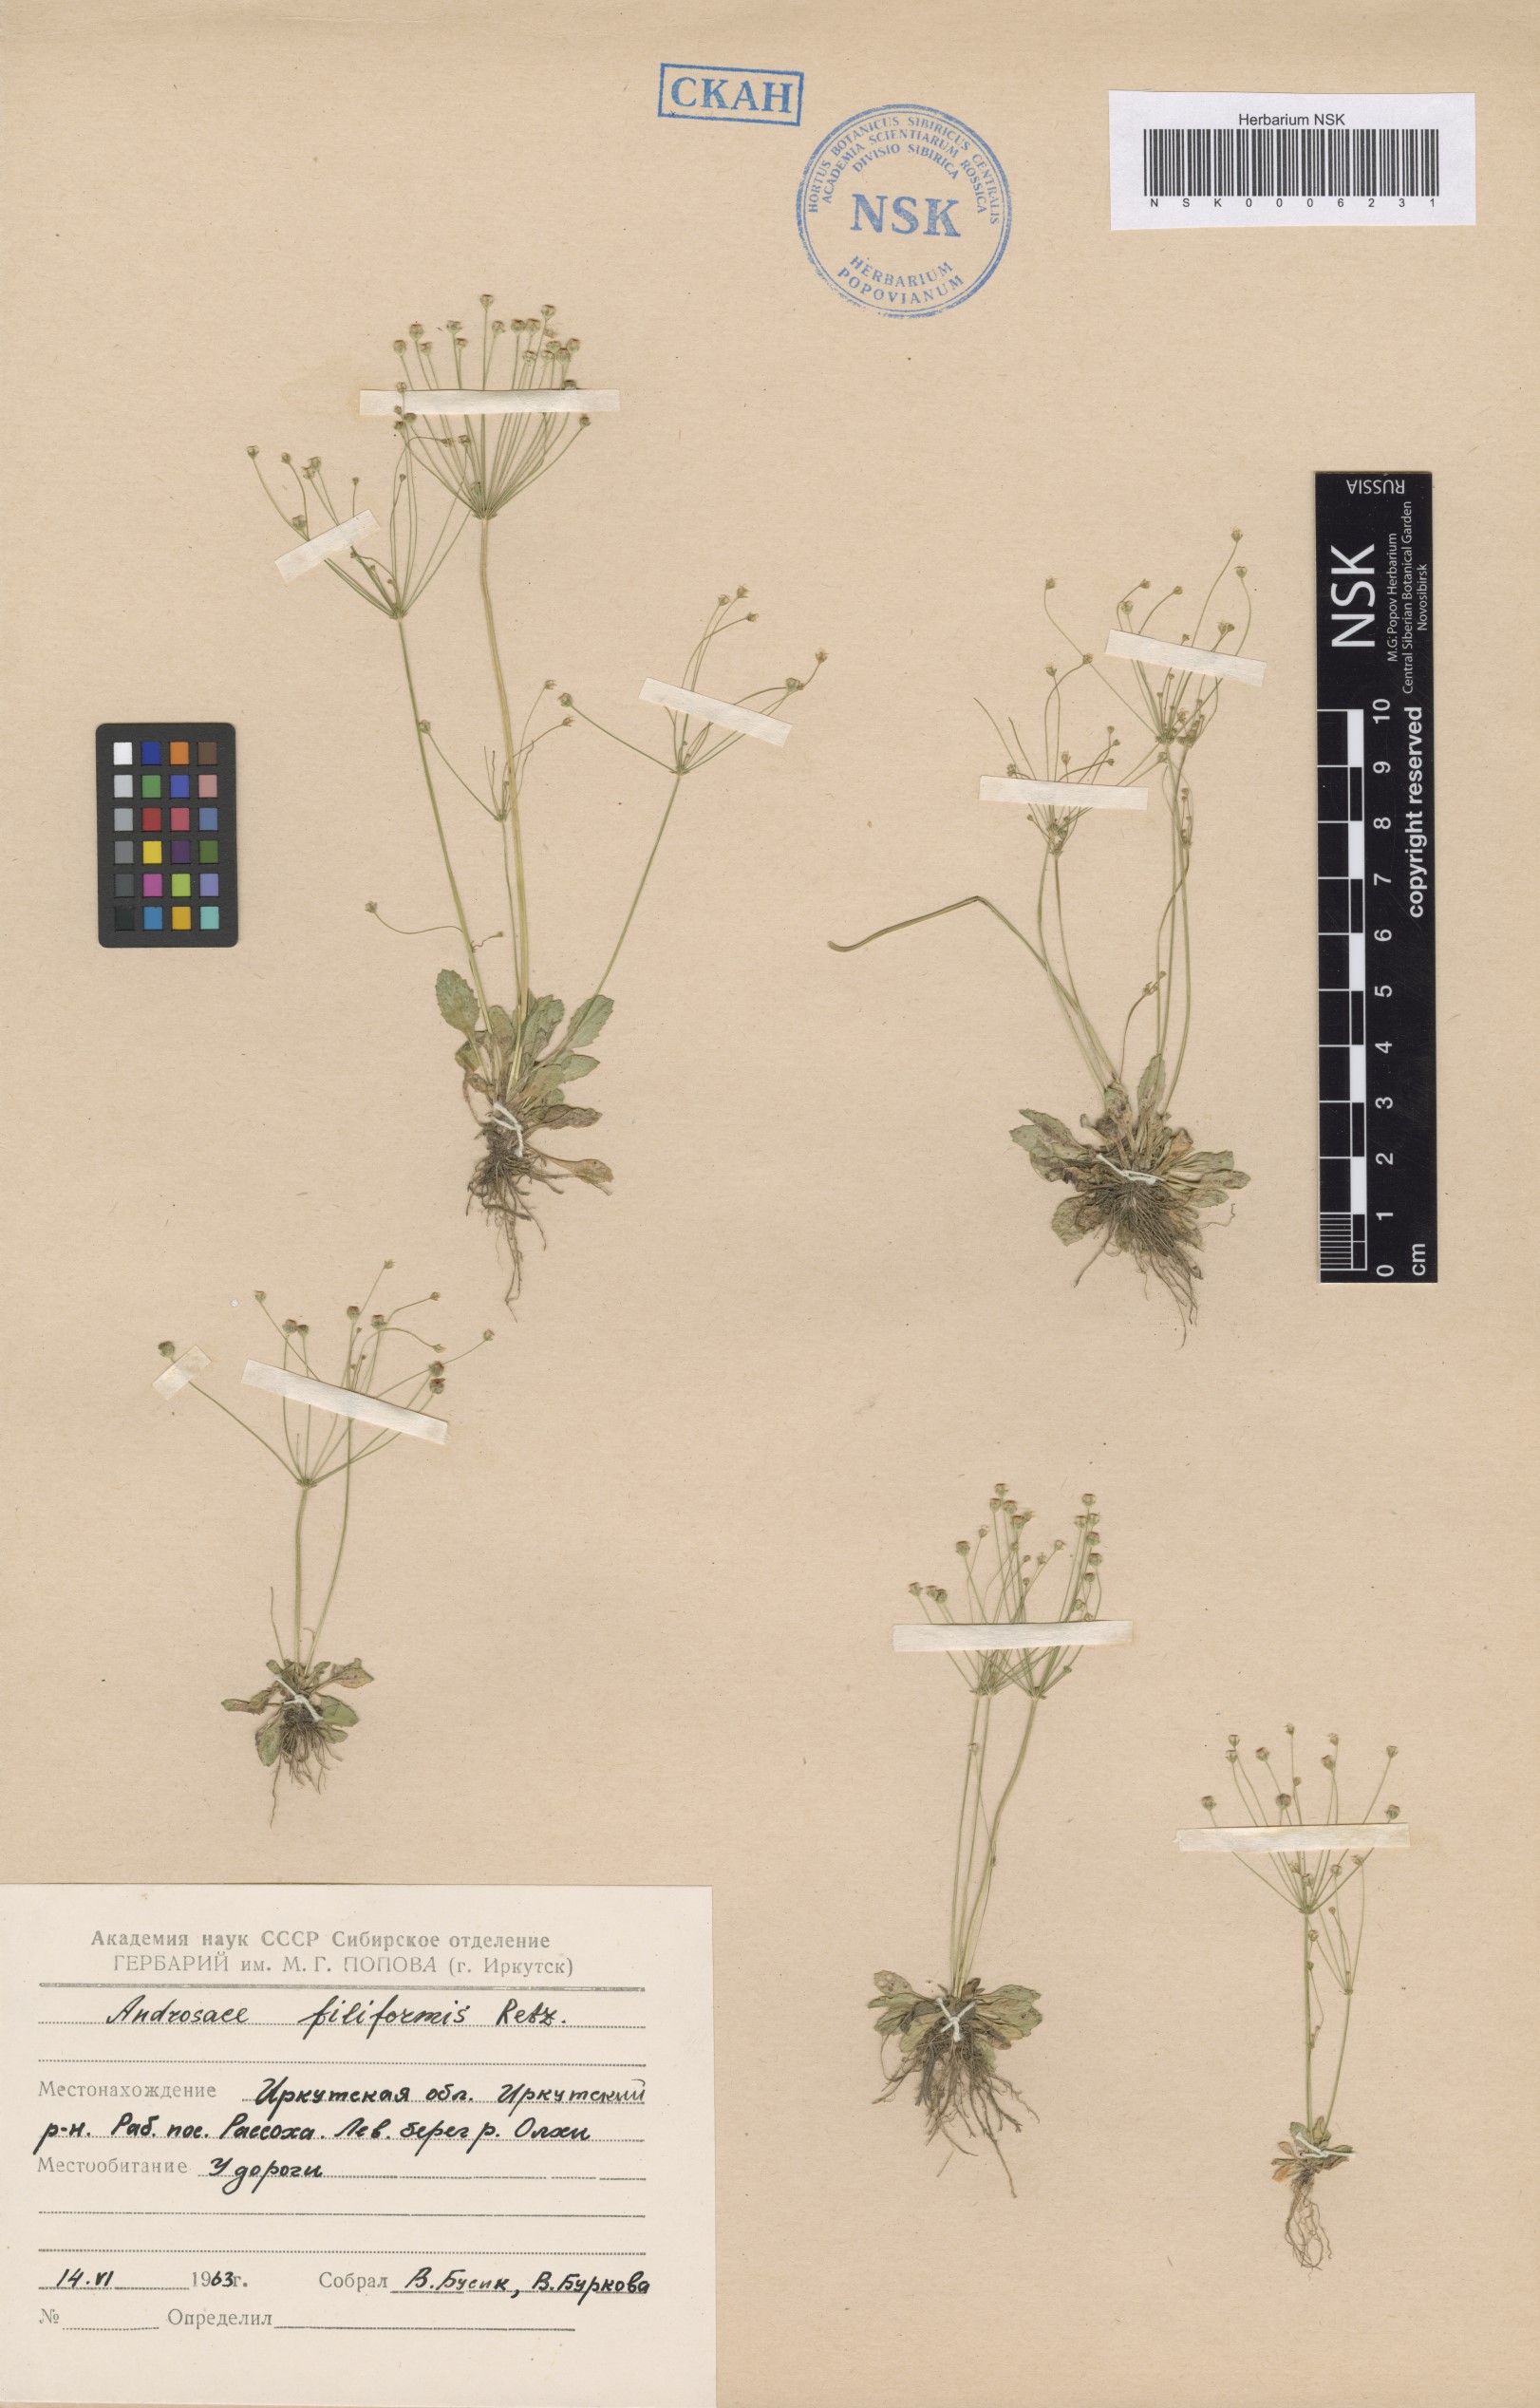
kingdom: Plantae
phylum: Tracheophyta
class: Magnoliopsida
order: Ericales
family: Primulaceae
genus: Androsace
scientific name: Androsace filiformis
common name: Filiform rock jasmine
